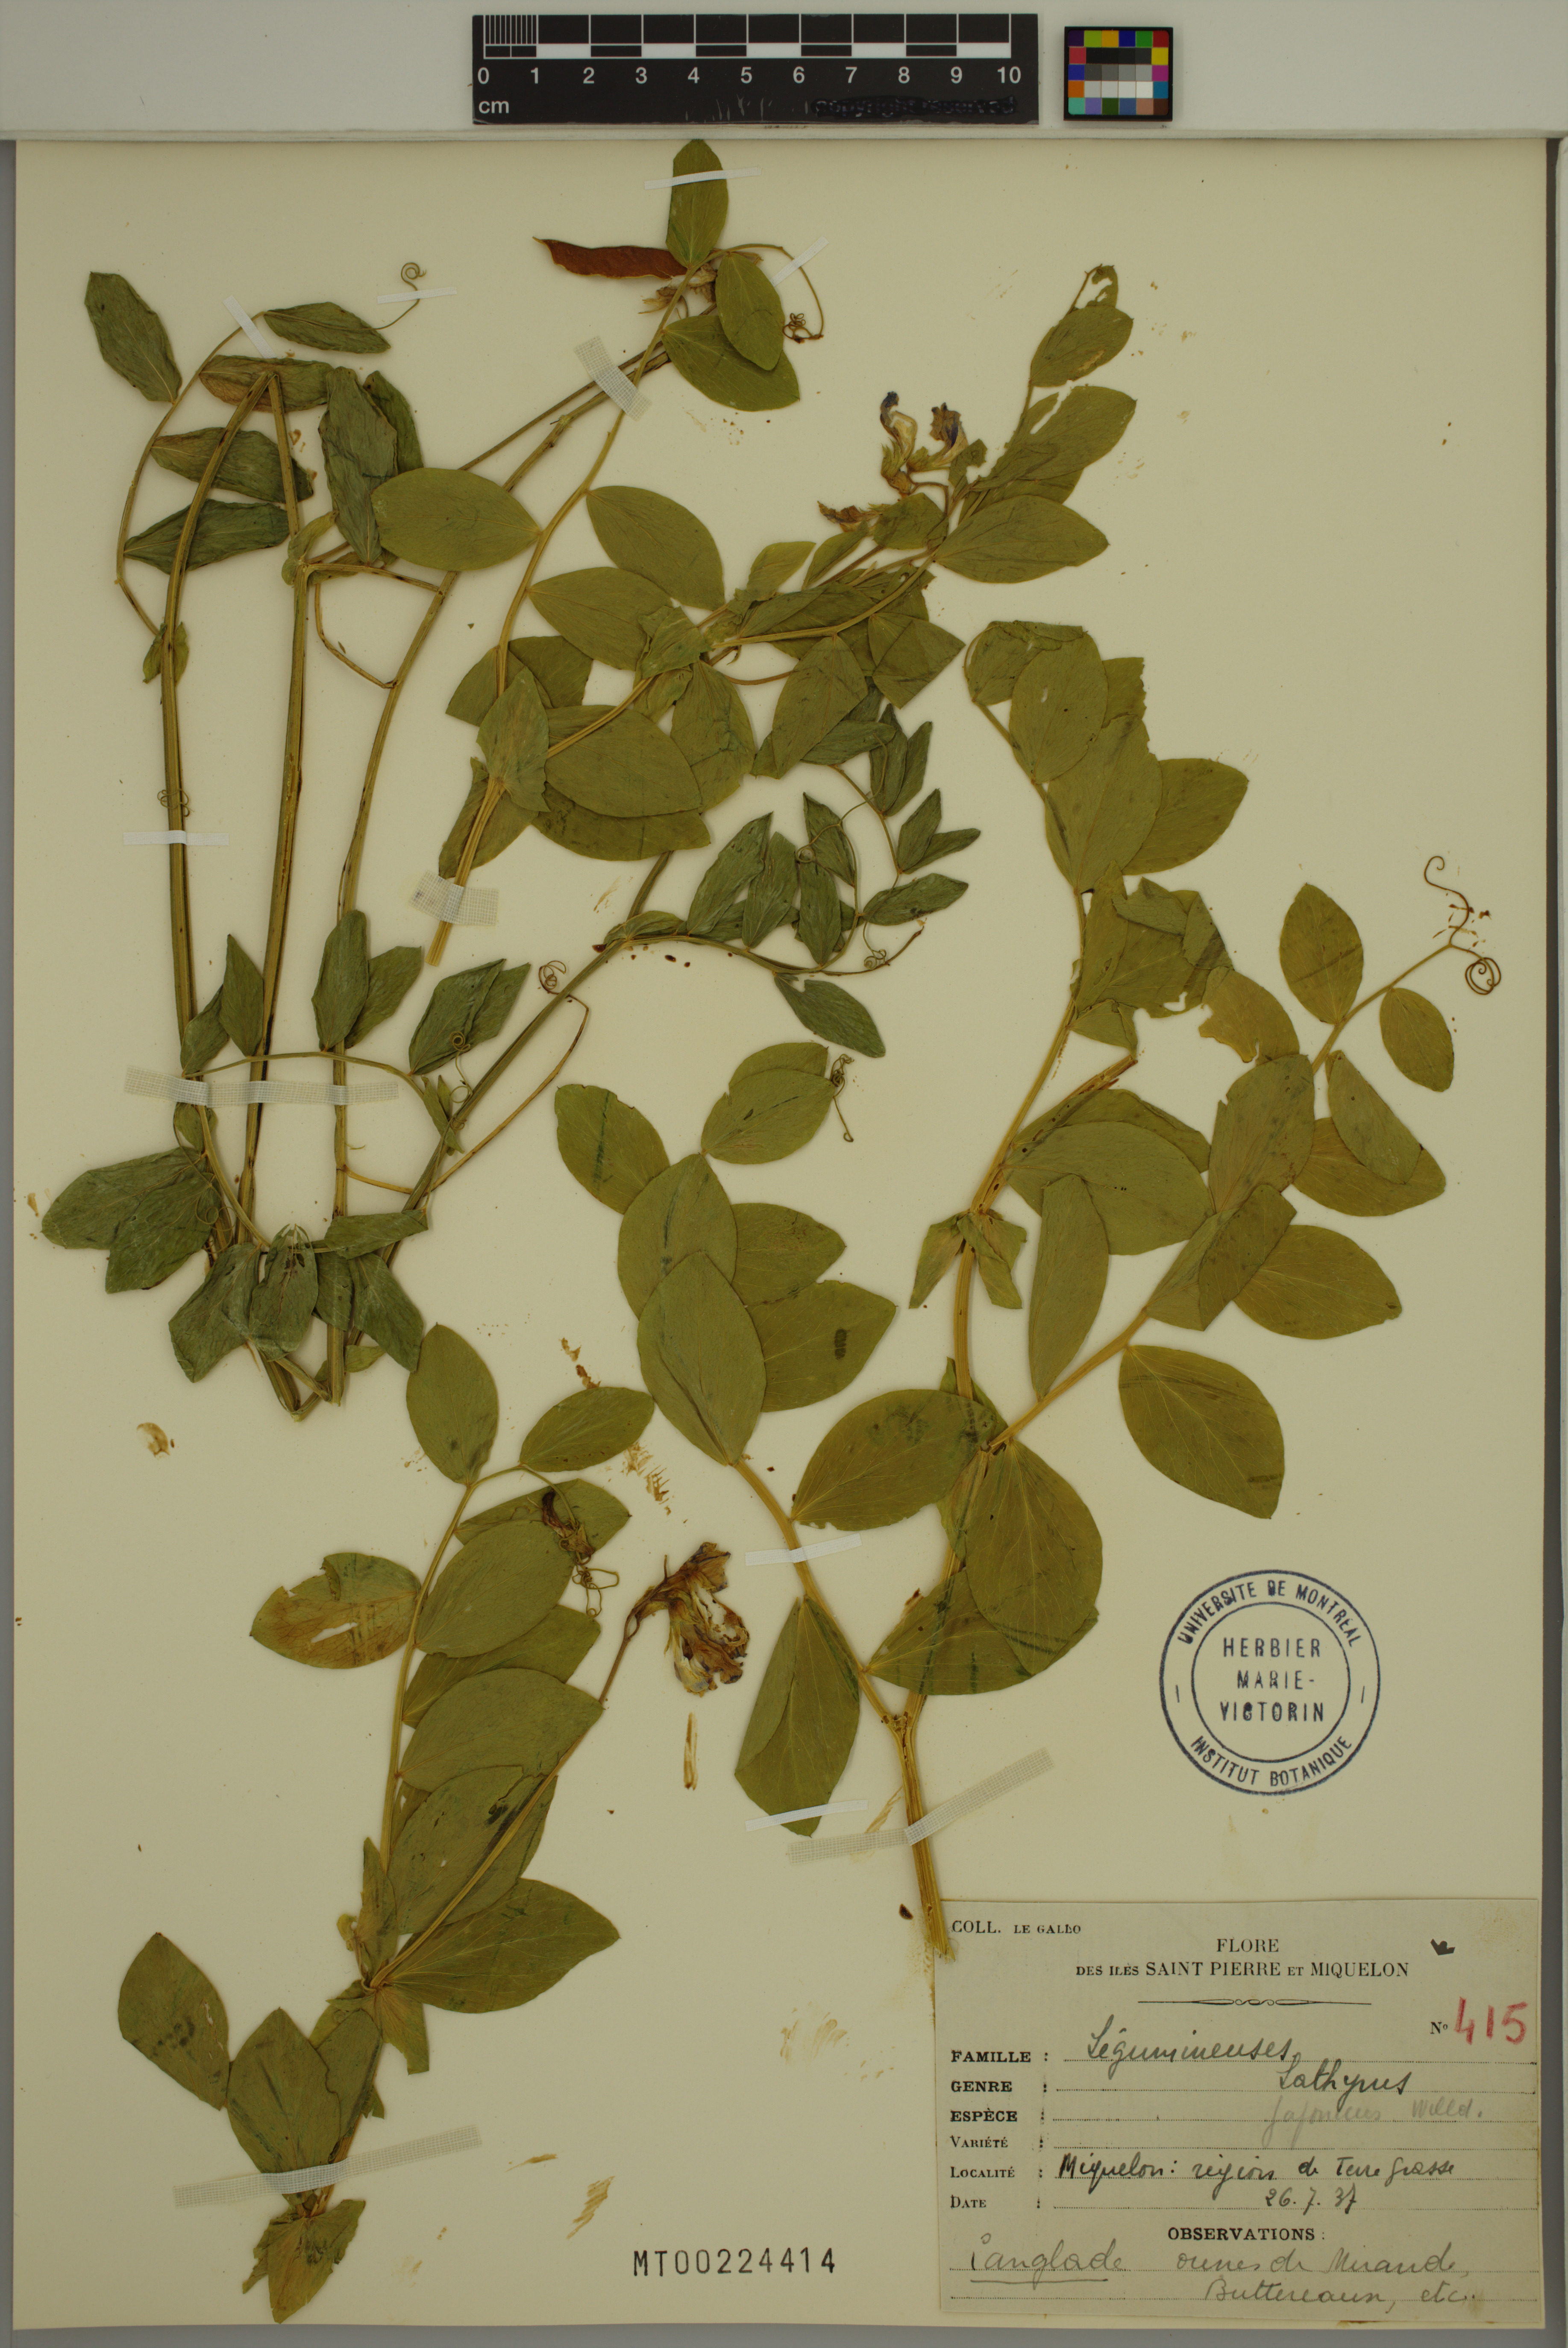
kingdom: Plantae
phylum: Tracheophyta
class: Magnoliopsida
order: Fabales
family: Fabaceae
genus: Lathyrus
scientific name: Lathyrus japonicus
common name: Sea pea
